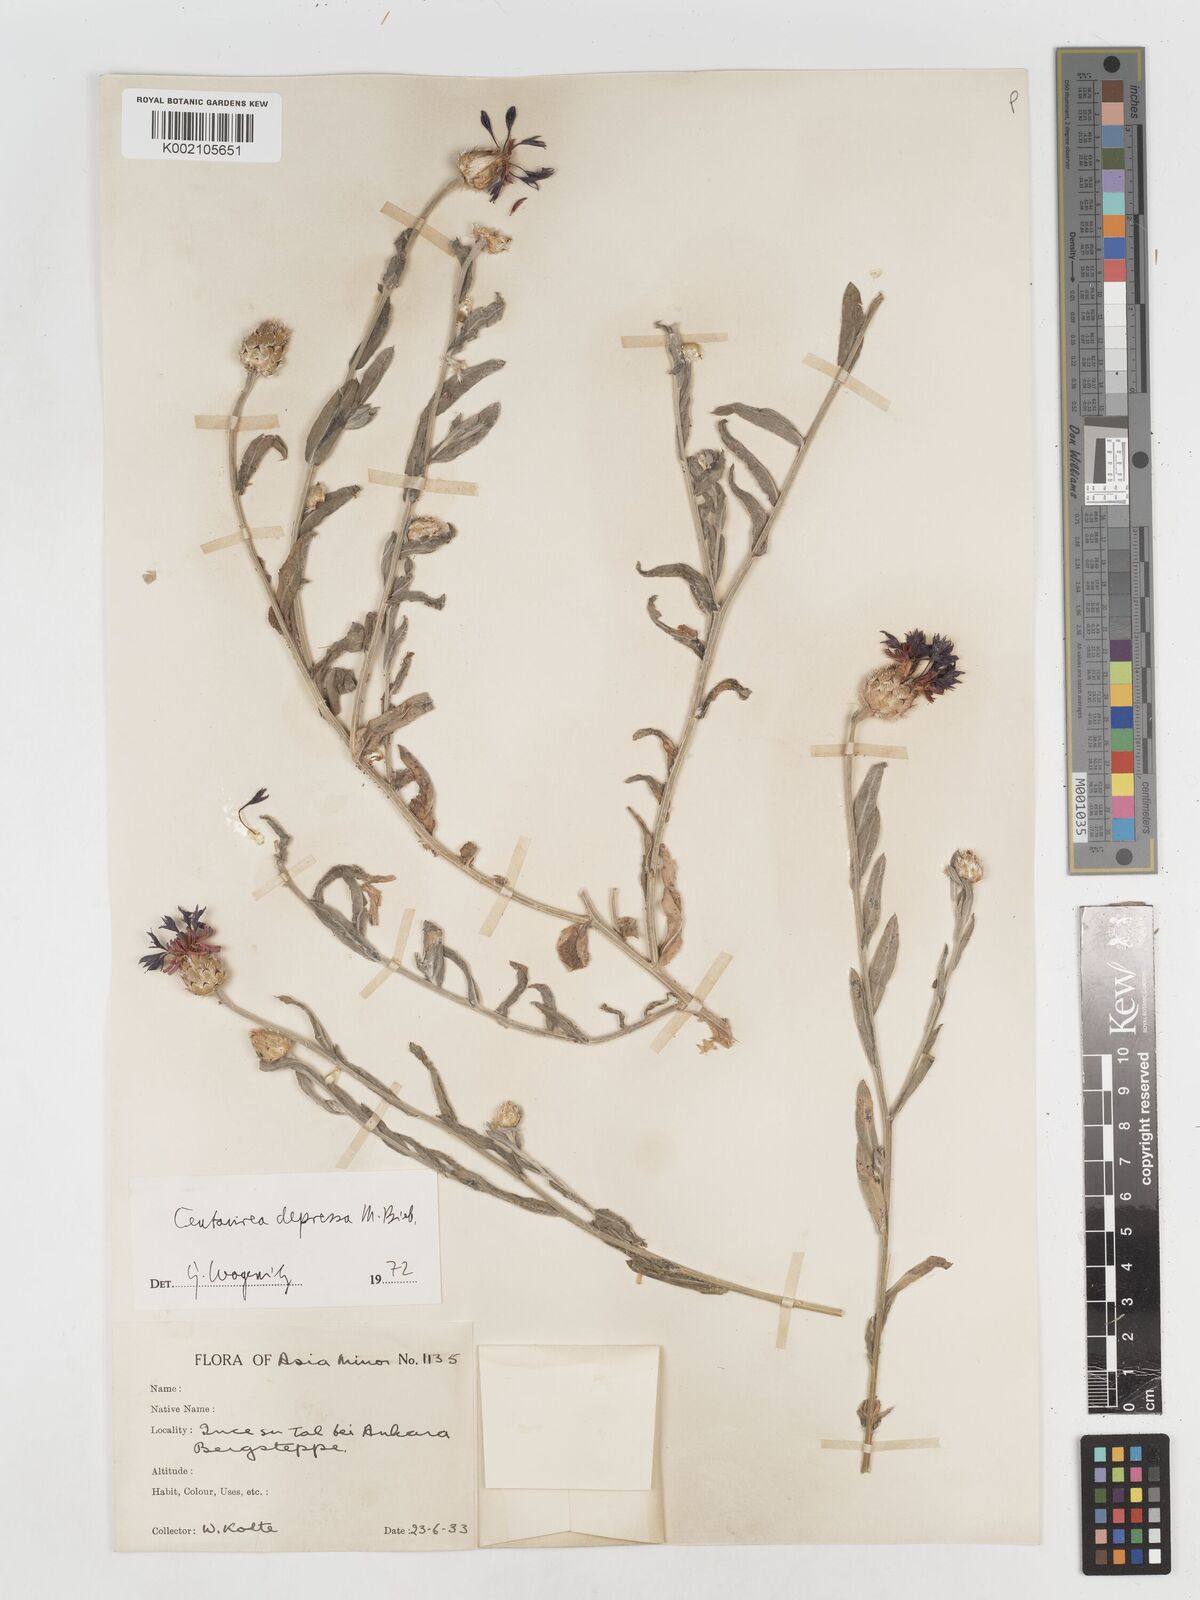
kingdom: Plantae
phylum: Tracheophyta
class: Magnoliopsida
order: Asterales
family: Asteraceae
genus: Centaurea
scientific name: Centaurea depressa
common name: Iranian knapweed
